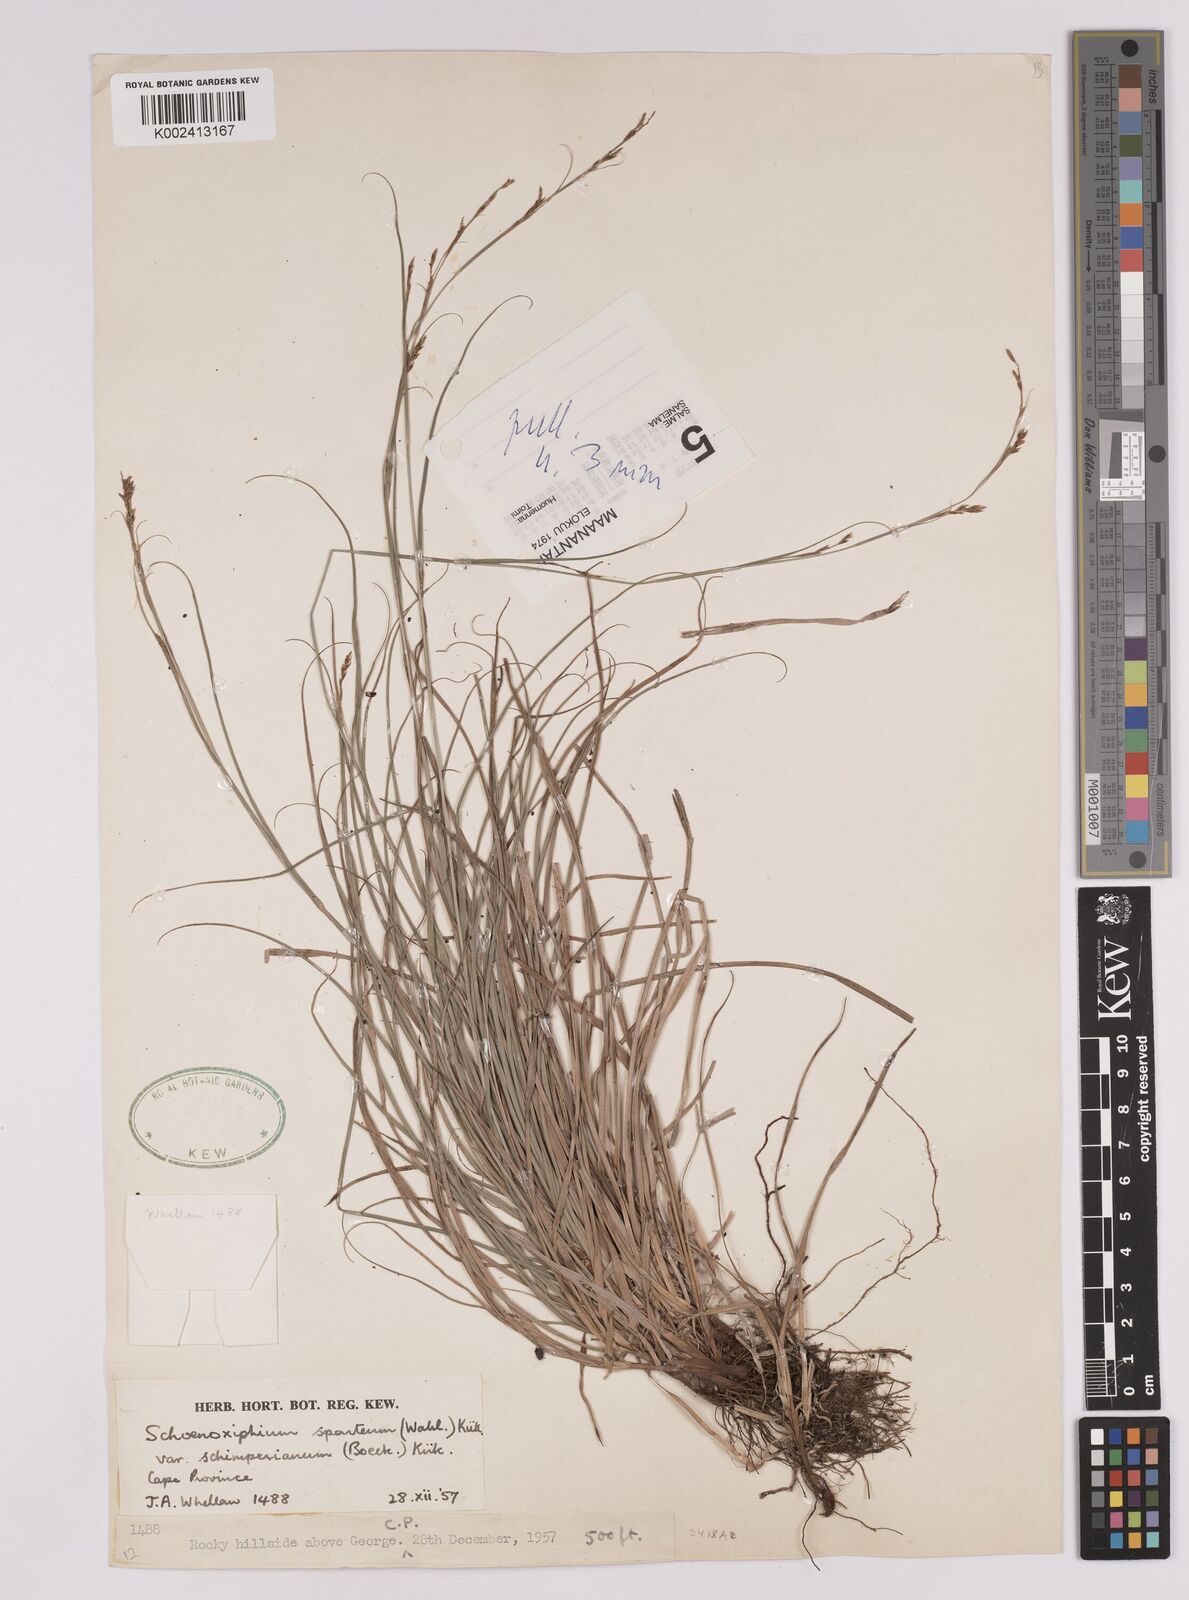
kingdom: Plantae
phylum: Tracheophyta
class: Liliopsida
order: Poales
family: Cyperaceae
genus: Carex
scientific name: Carex spartea
